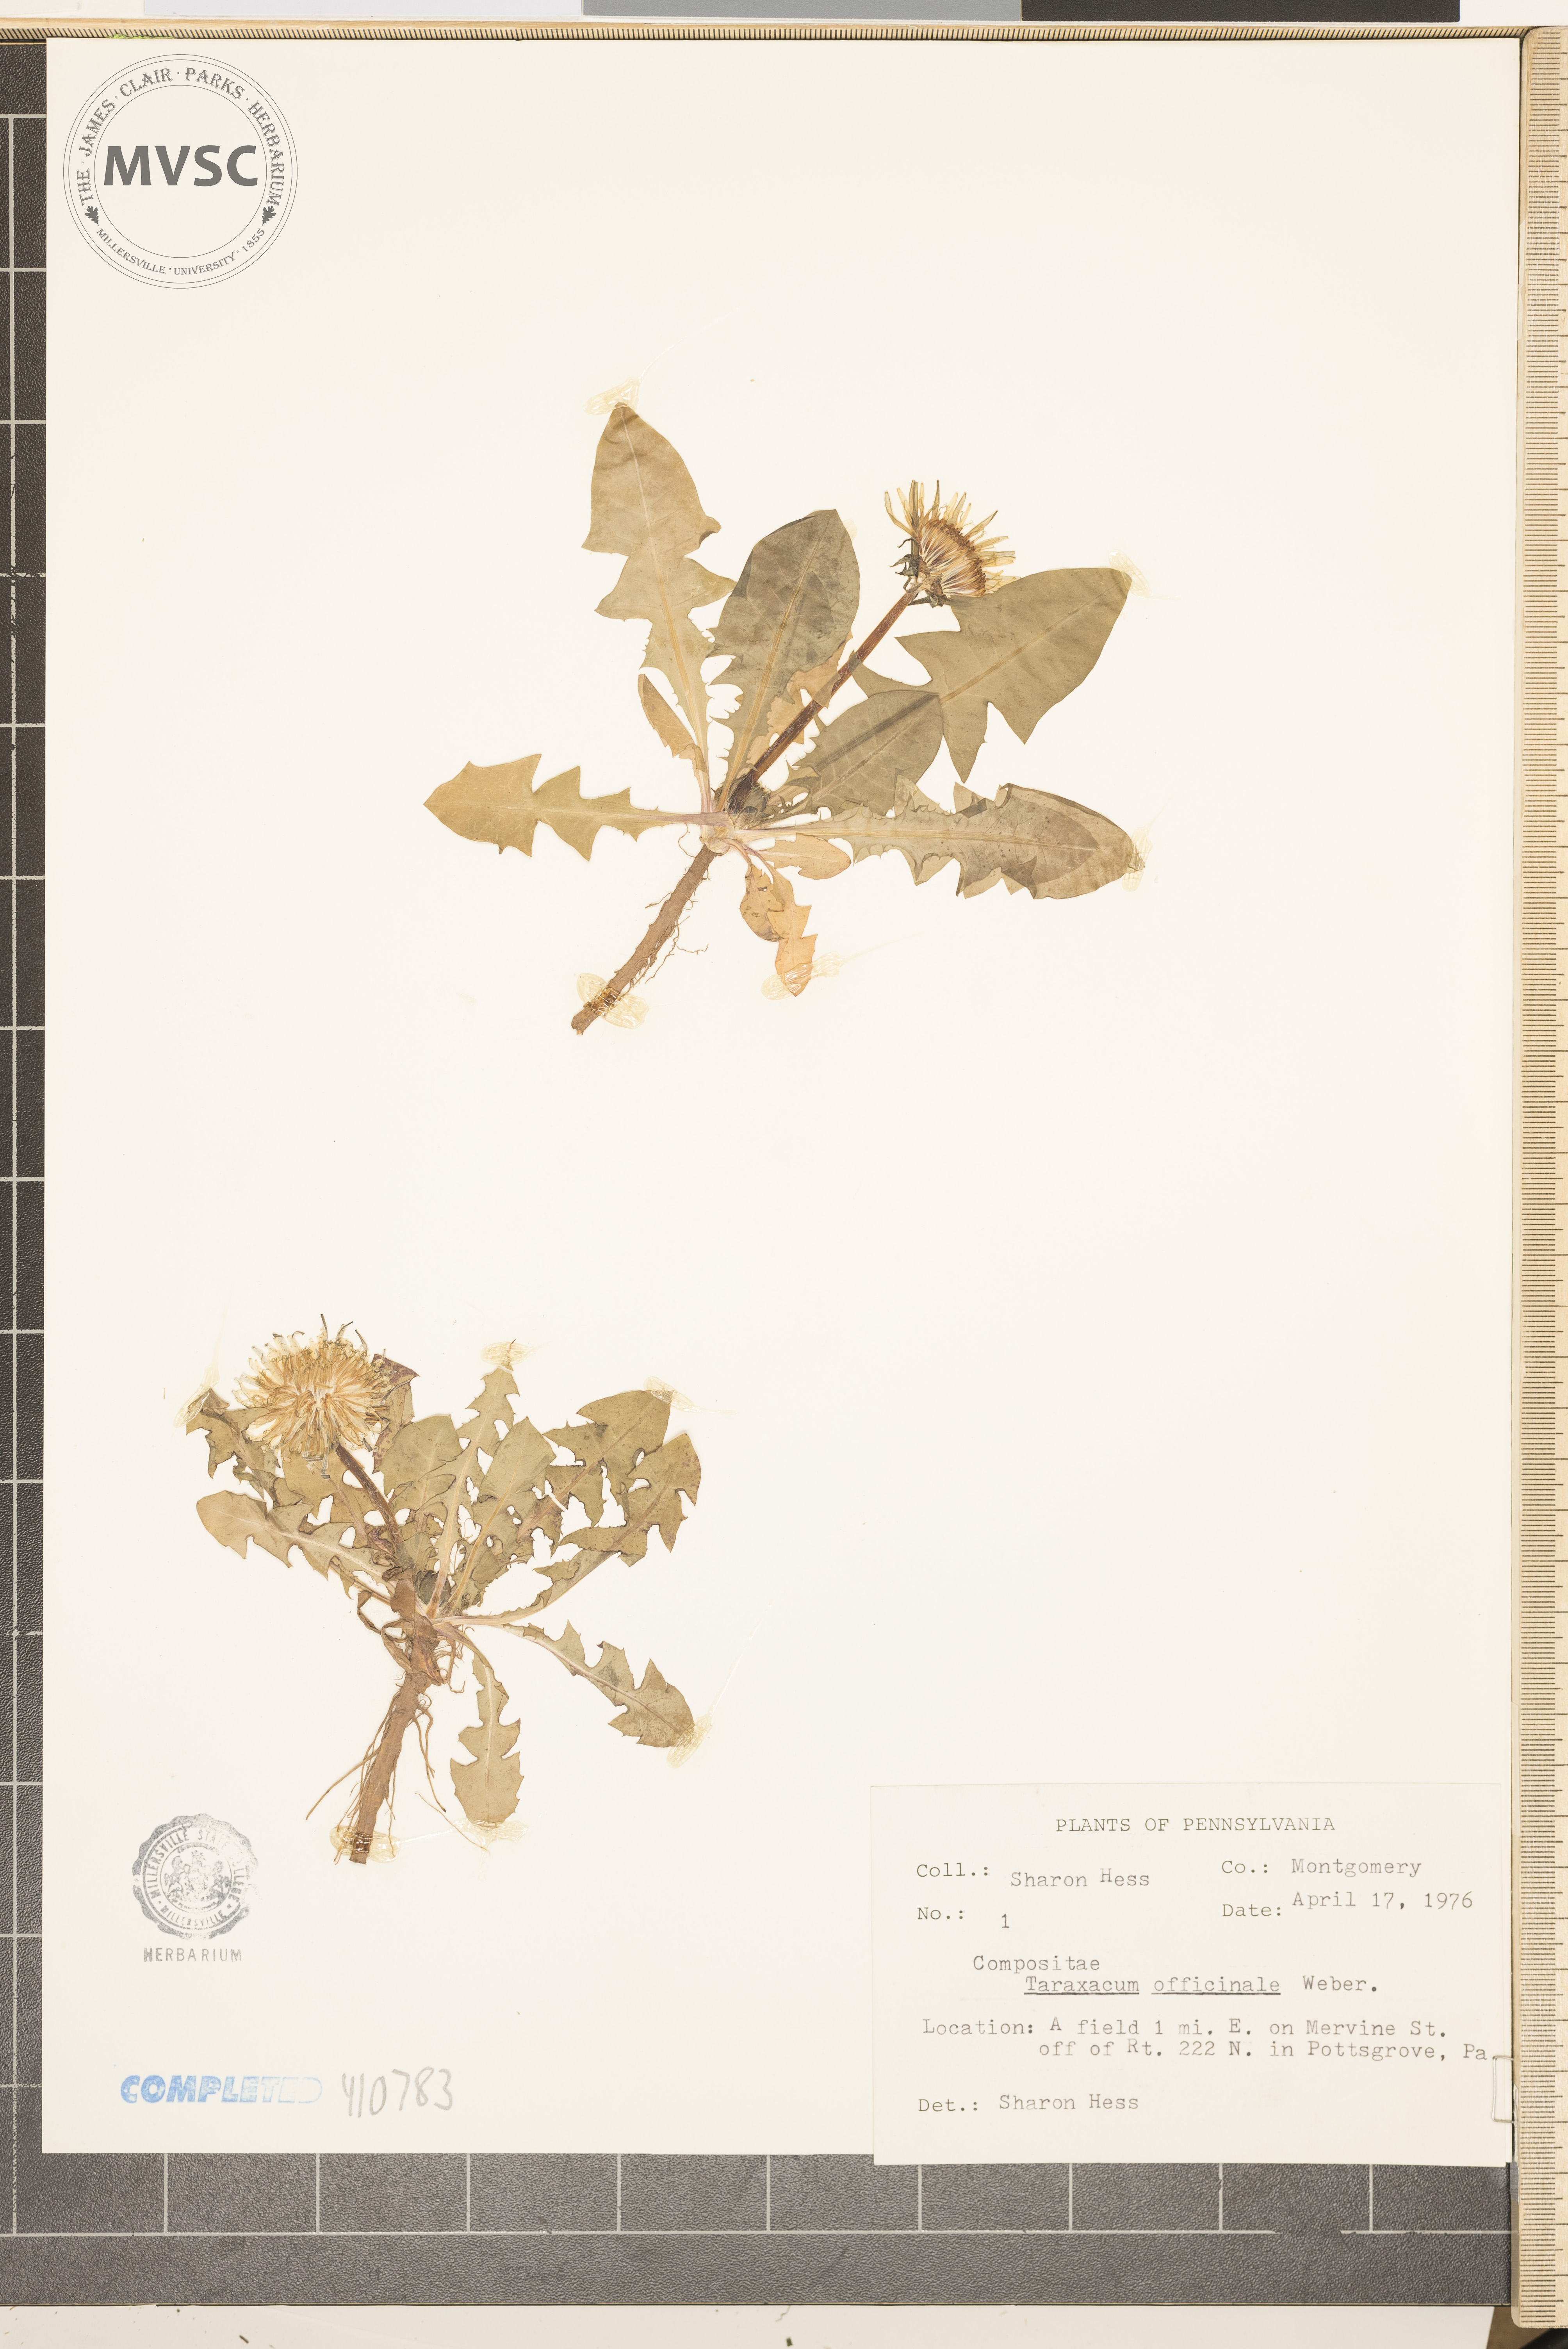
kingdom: Plantae
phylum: Tracheophyta
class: Magnoliopsida
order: Asterales
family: Asteraceae
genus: Taraxacum
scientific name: Taraxacum officinale
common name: Common dandelion
